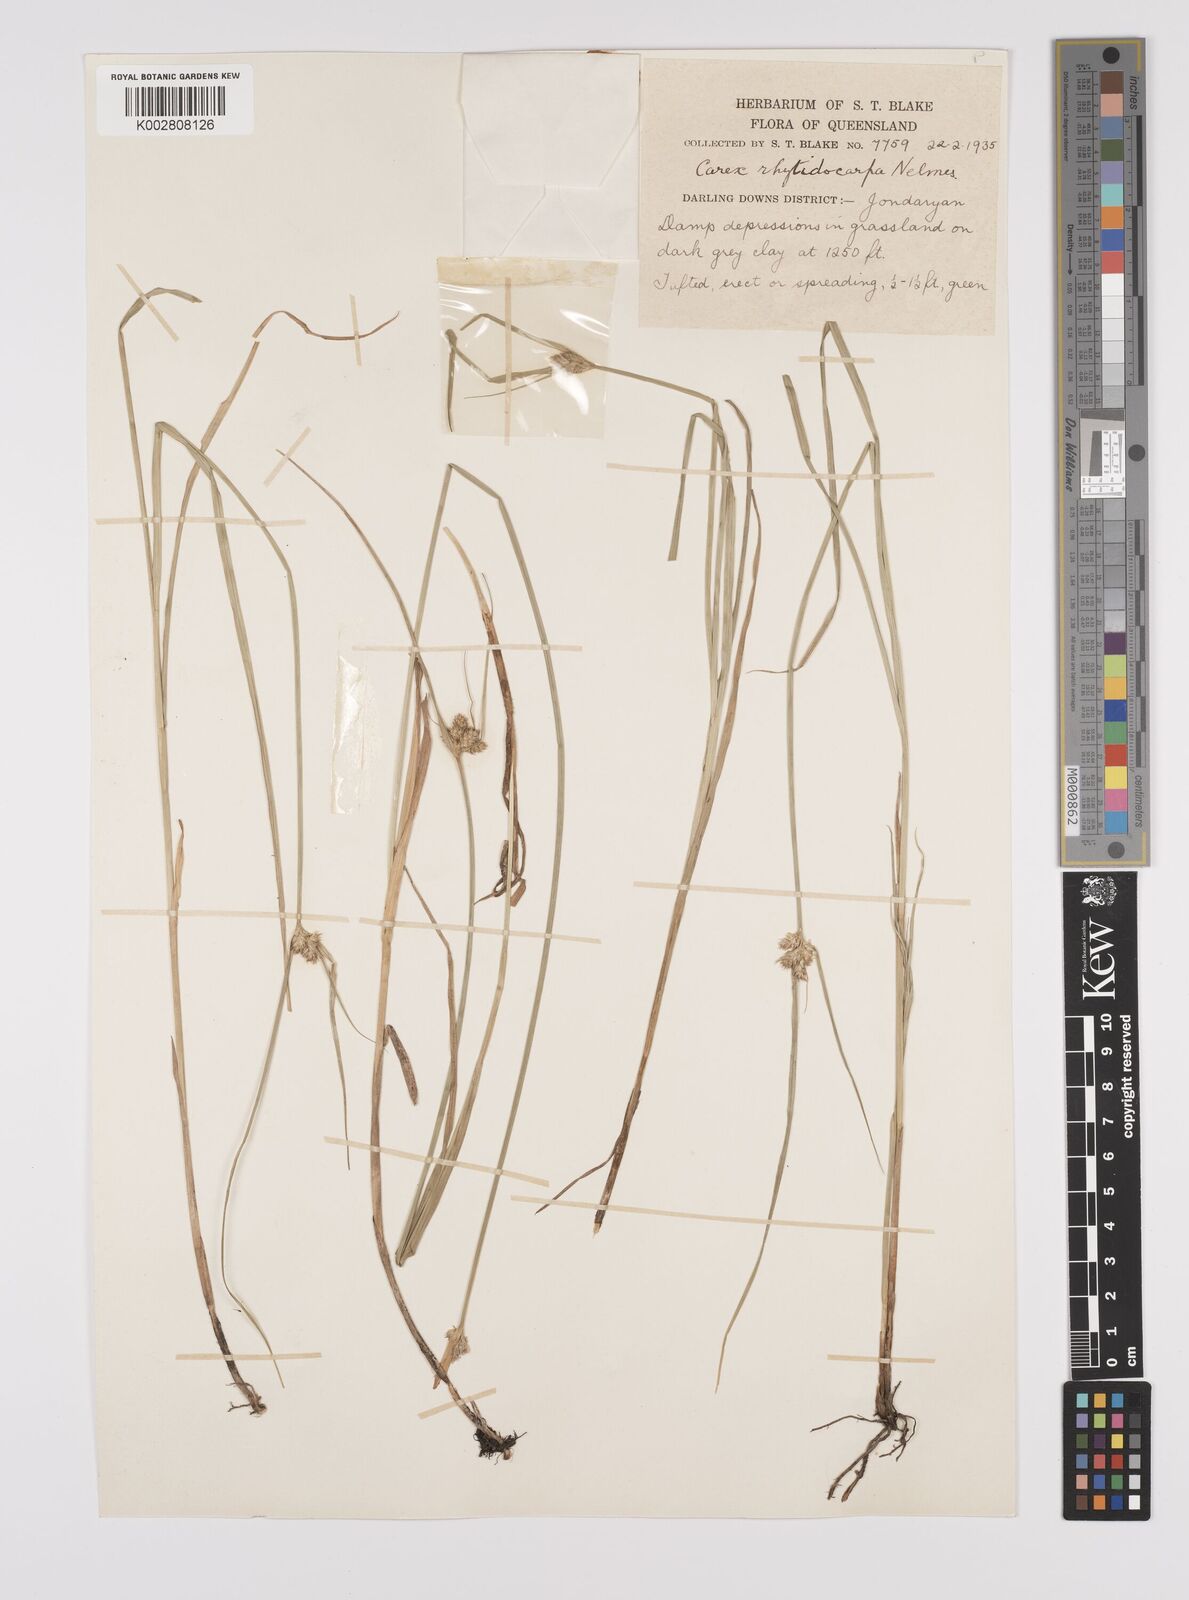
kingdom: Plantae
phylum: Tracheophyta
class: Liliopsida
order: Poales
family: Cyperaceae
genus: Carex
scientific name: Carex inversa
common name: Knob sedge
